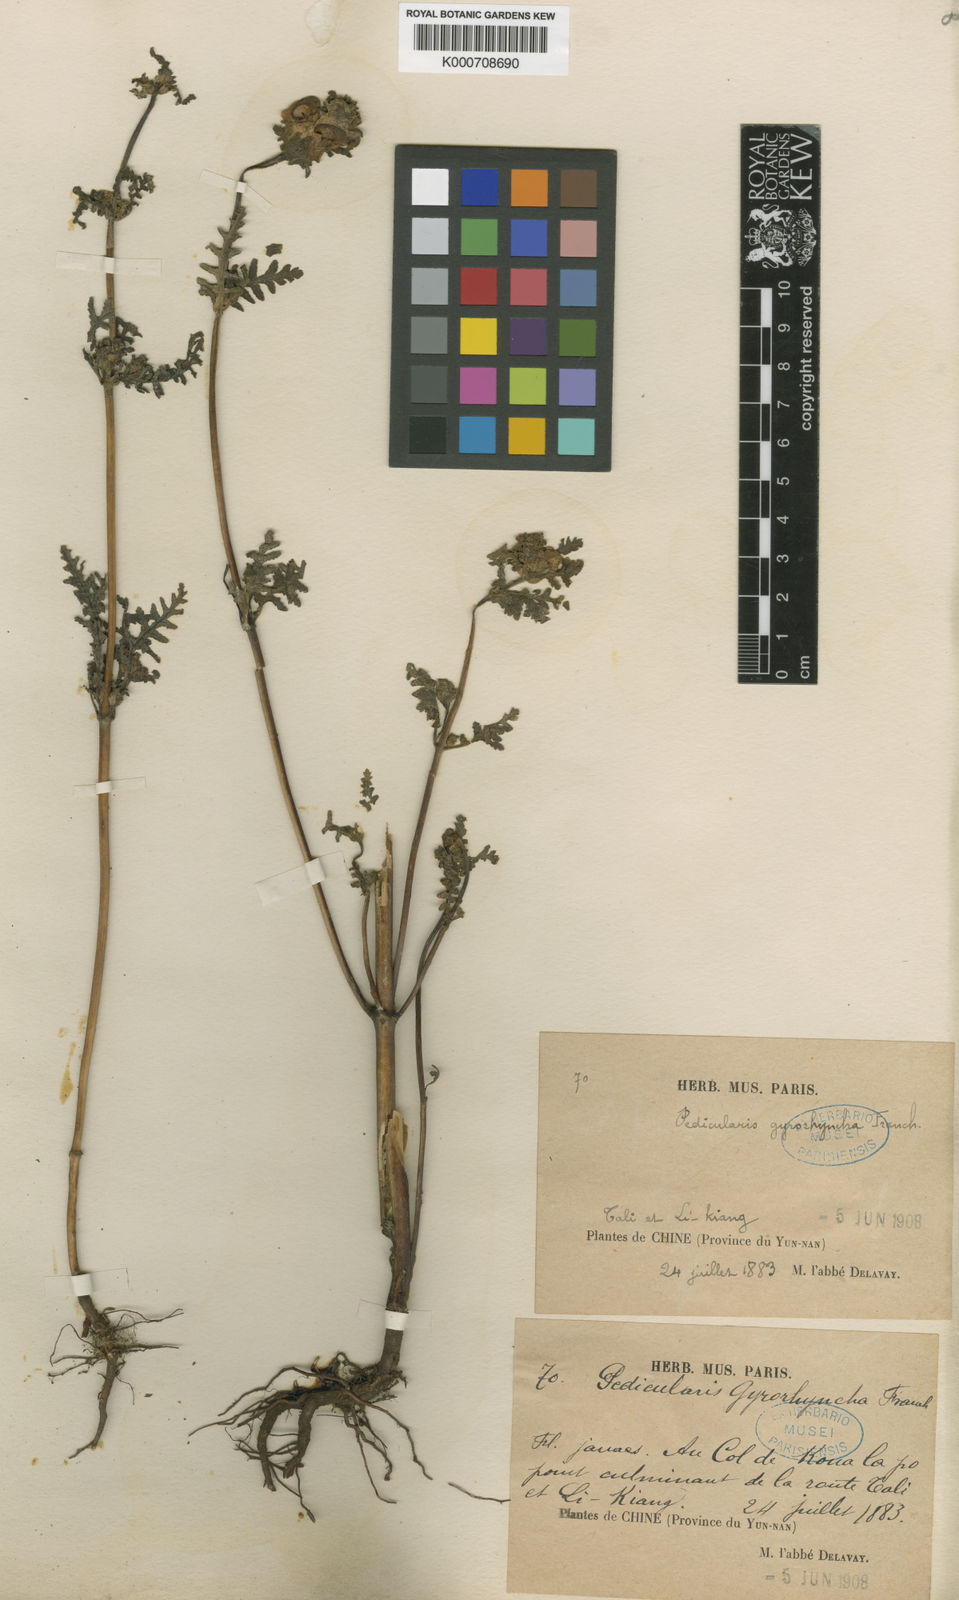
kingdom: Plantae
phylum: Tracheophyta
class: Magnoliopsida
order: Lamiales
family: Orobanchaceae
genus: Pedicularis
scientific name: Pedicularis gyrorhyncha
